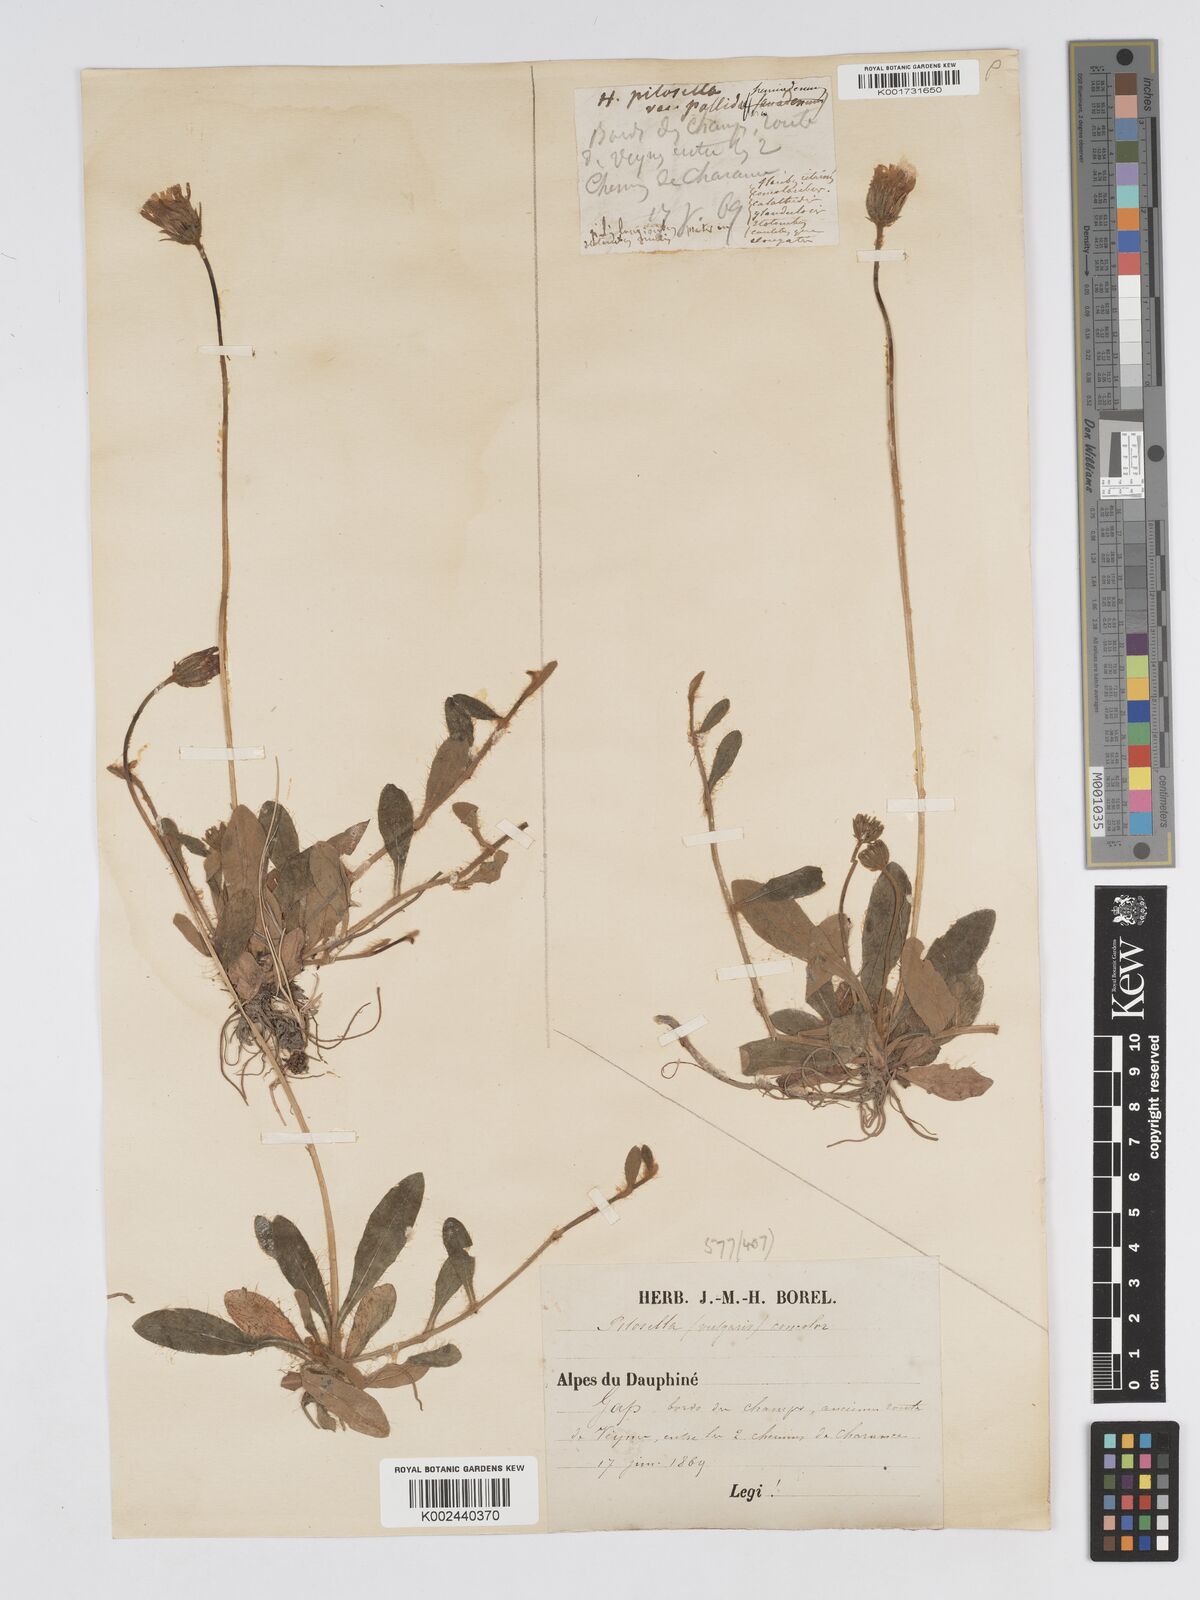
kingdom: Plantae
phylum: Tracheophyta
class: Magnoliopsida
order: Asterales
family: Asteraceae
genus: Pilosella
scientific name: Pilosella officinarum
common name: Mouse-ear hawkweed
